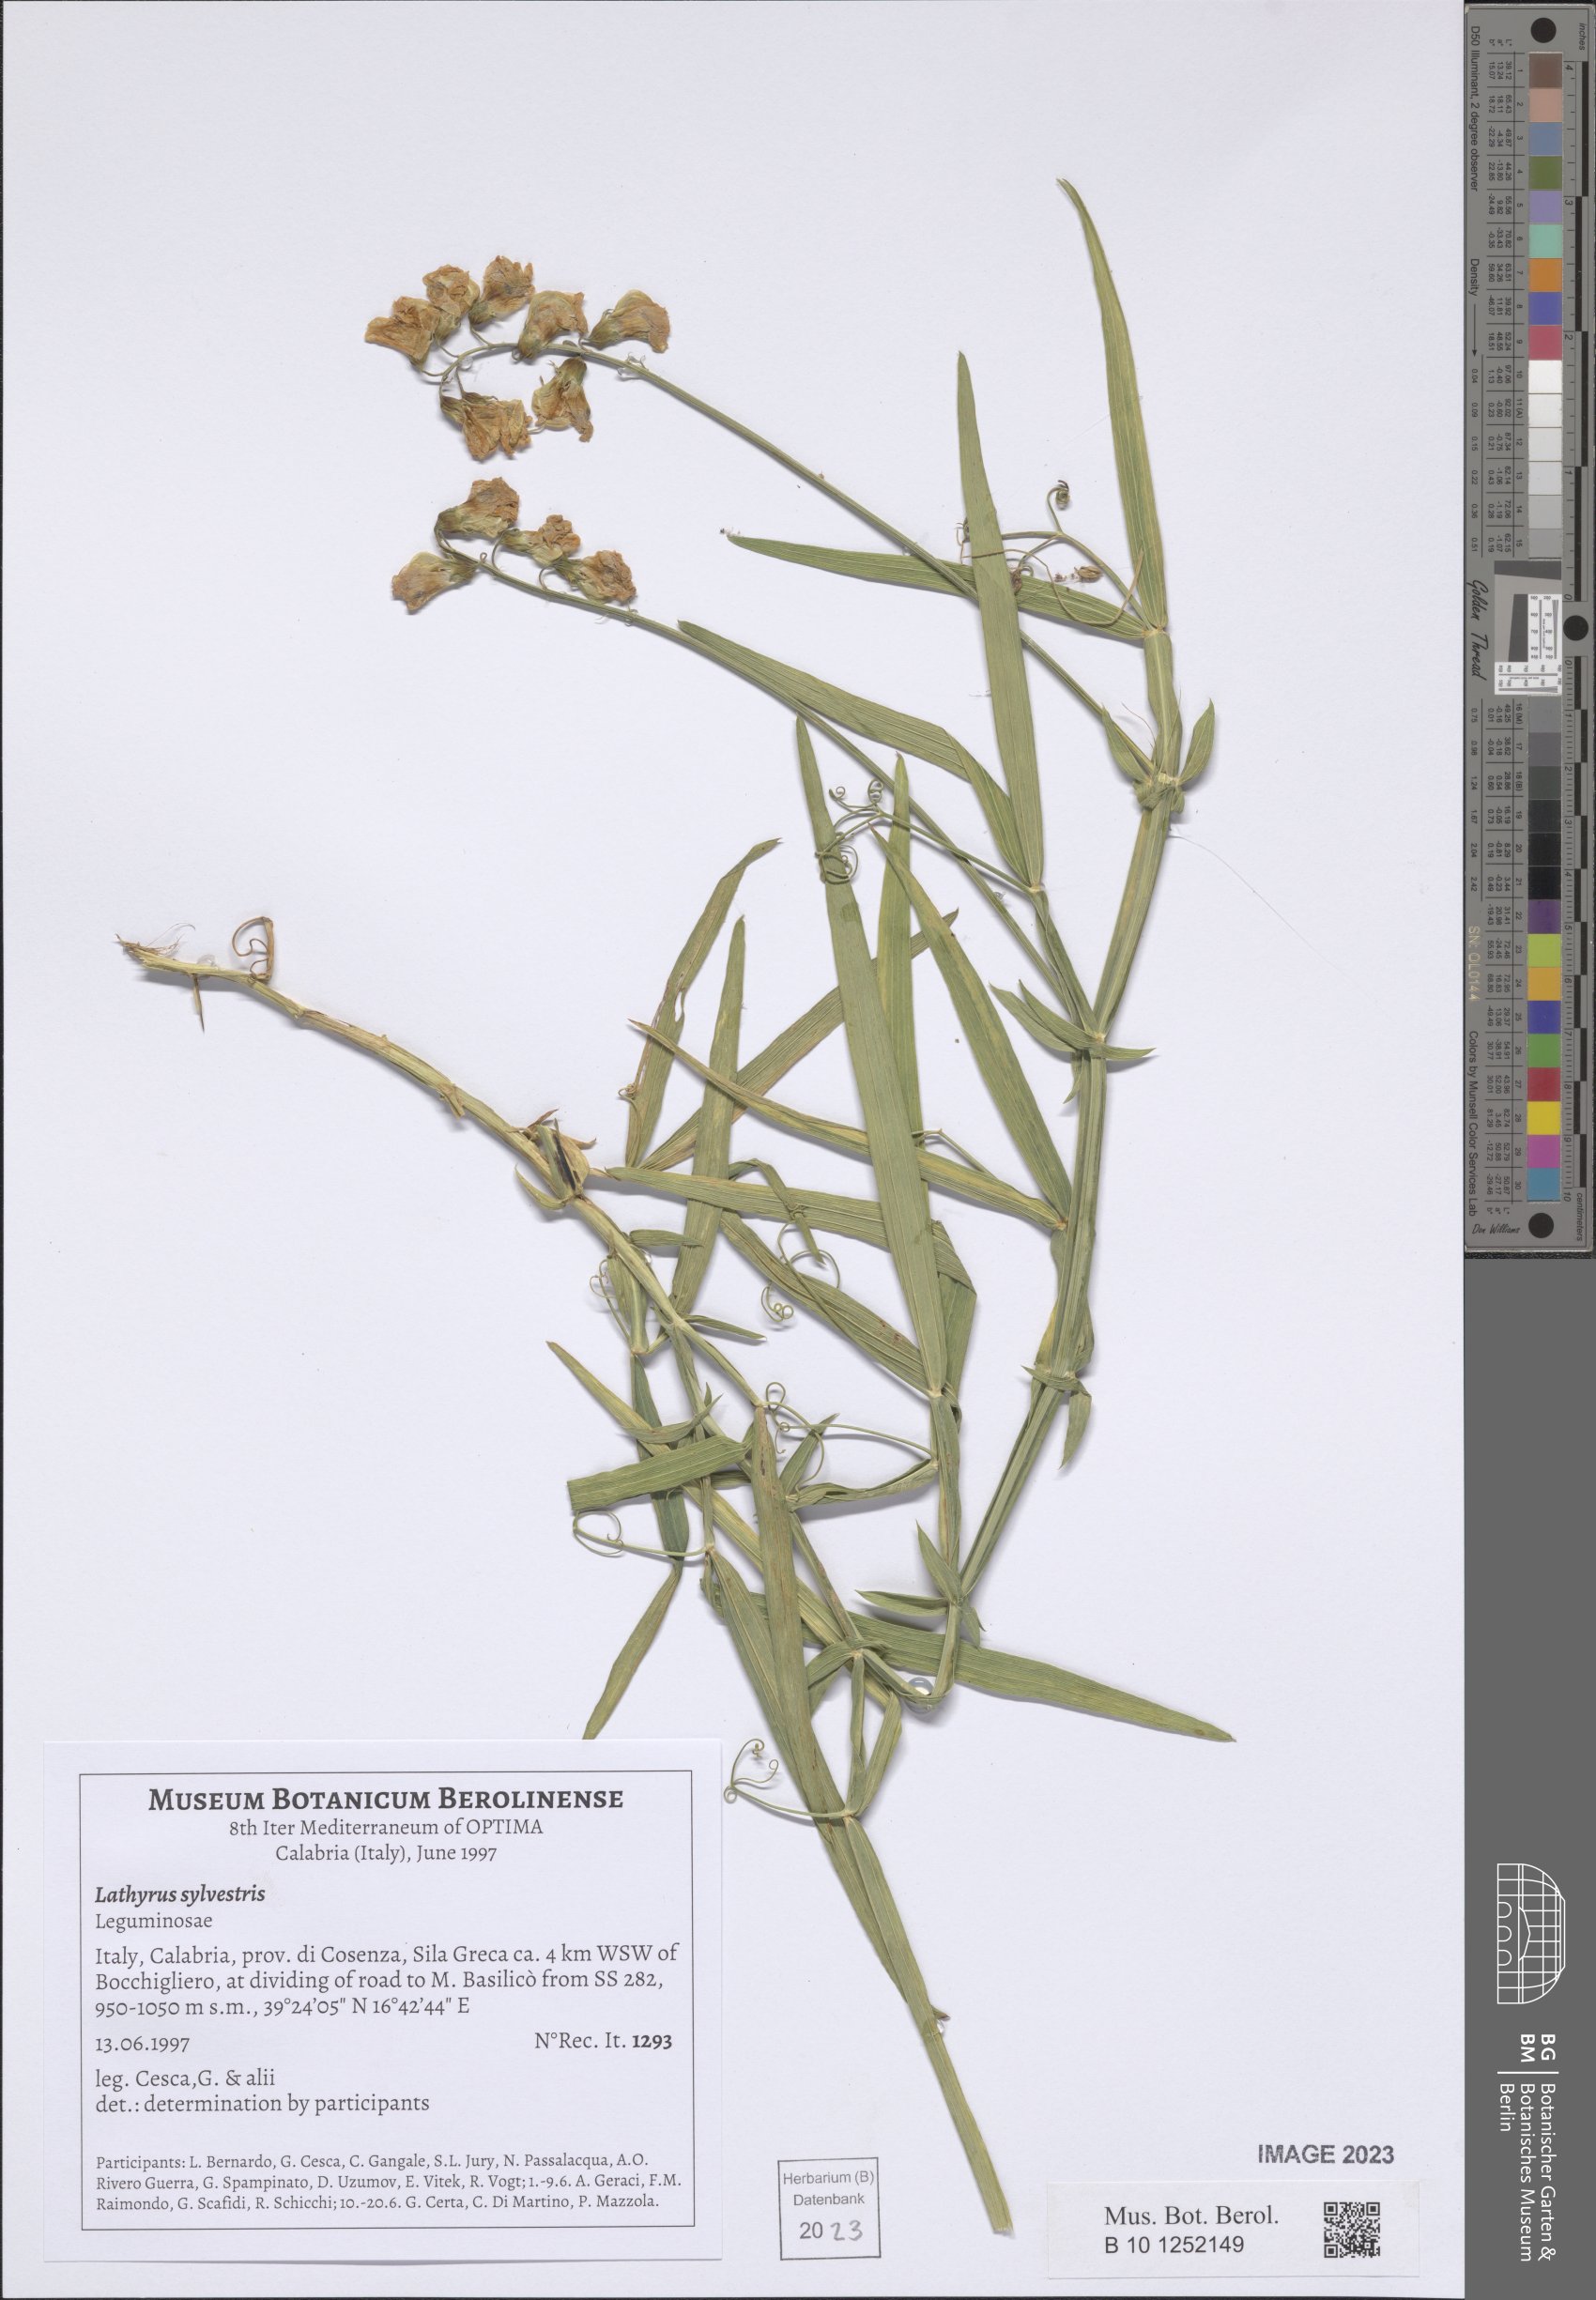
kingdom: Plantae
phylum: Tracheophyta
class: Magnoliopsida
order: Fabales
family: Fabaceae
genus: Lathyrus
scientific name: Lathyrus sylvestris
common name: Flat pea
